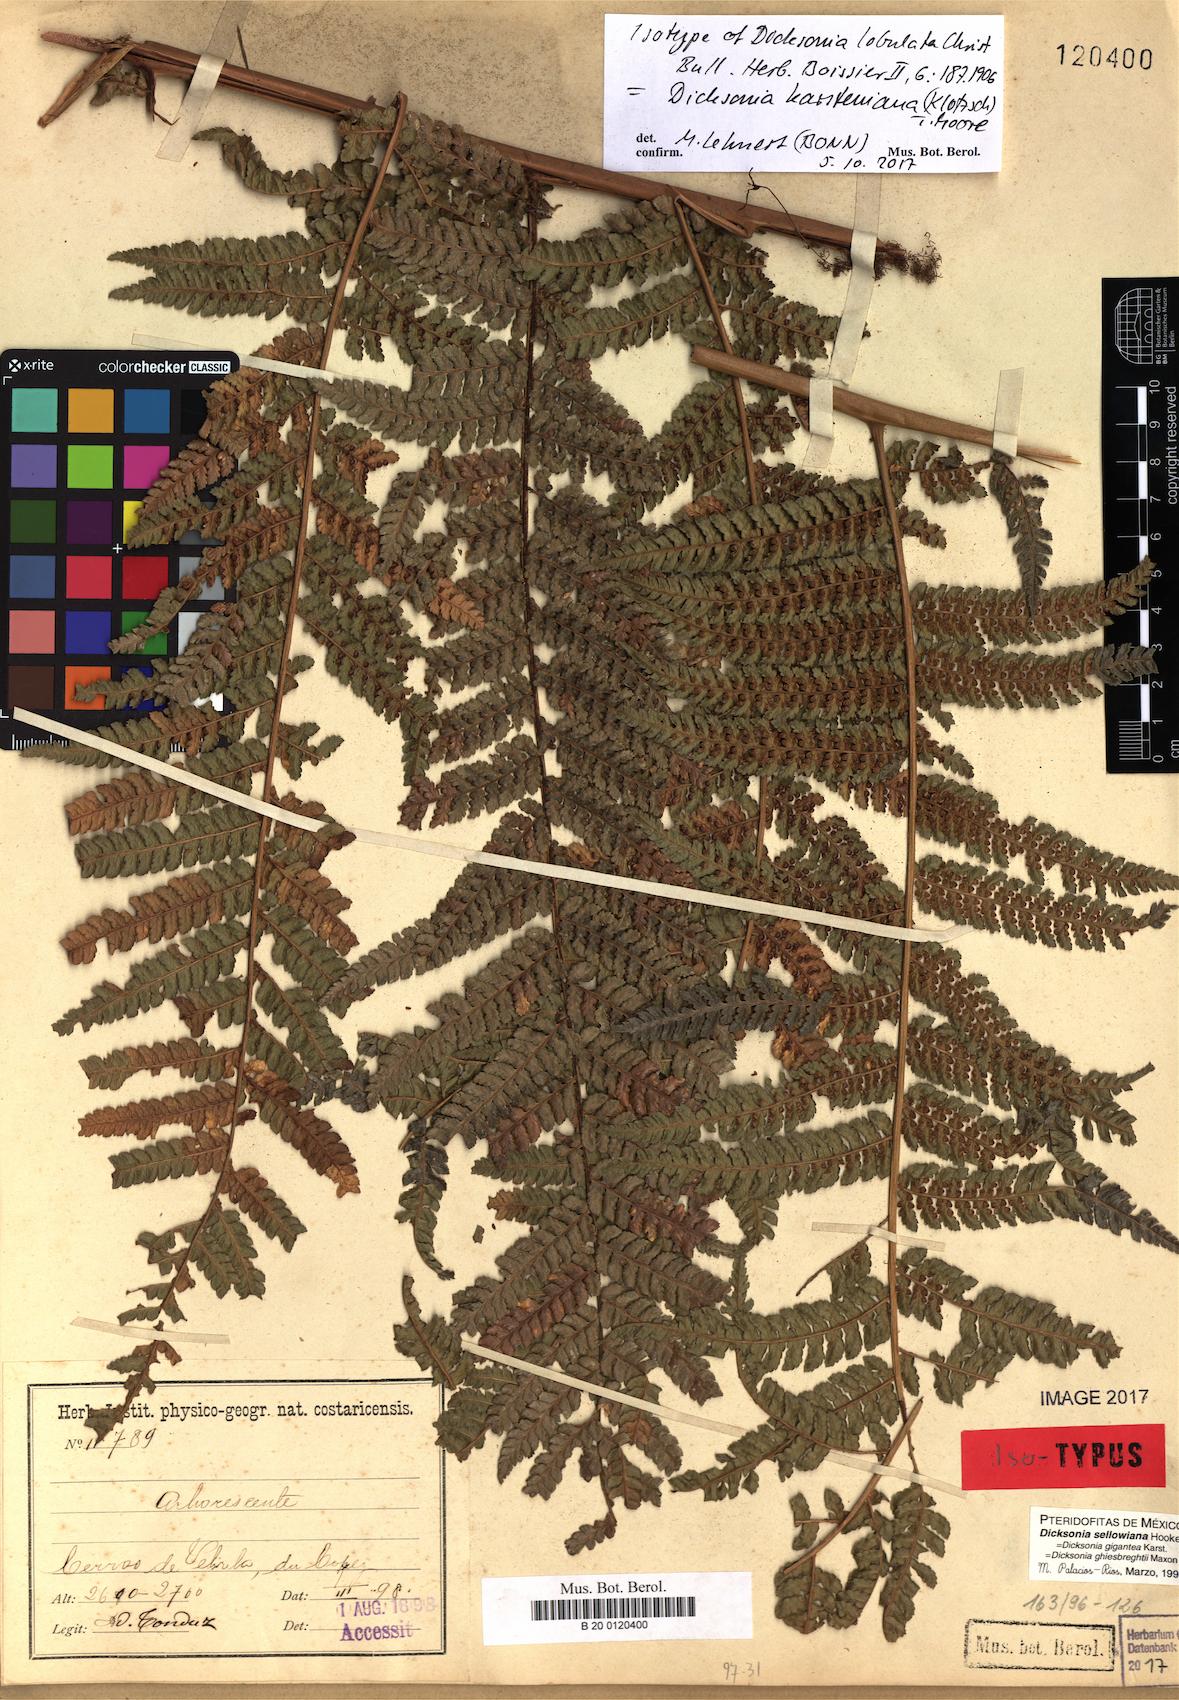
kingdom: Plantae
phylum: Tracheophyta
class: Polypodiopsida
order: Cyatheales
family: Dicksoniaceae
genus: Dicksonia
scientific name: Dicksonia karsteniana
